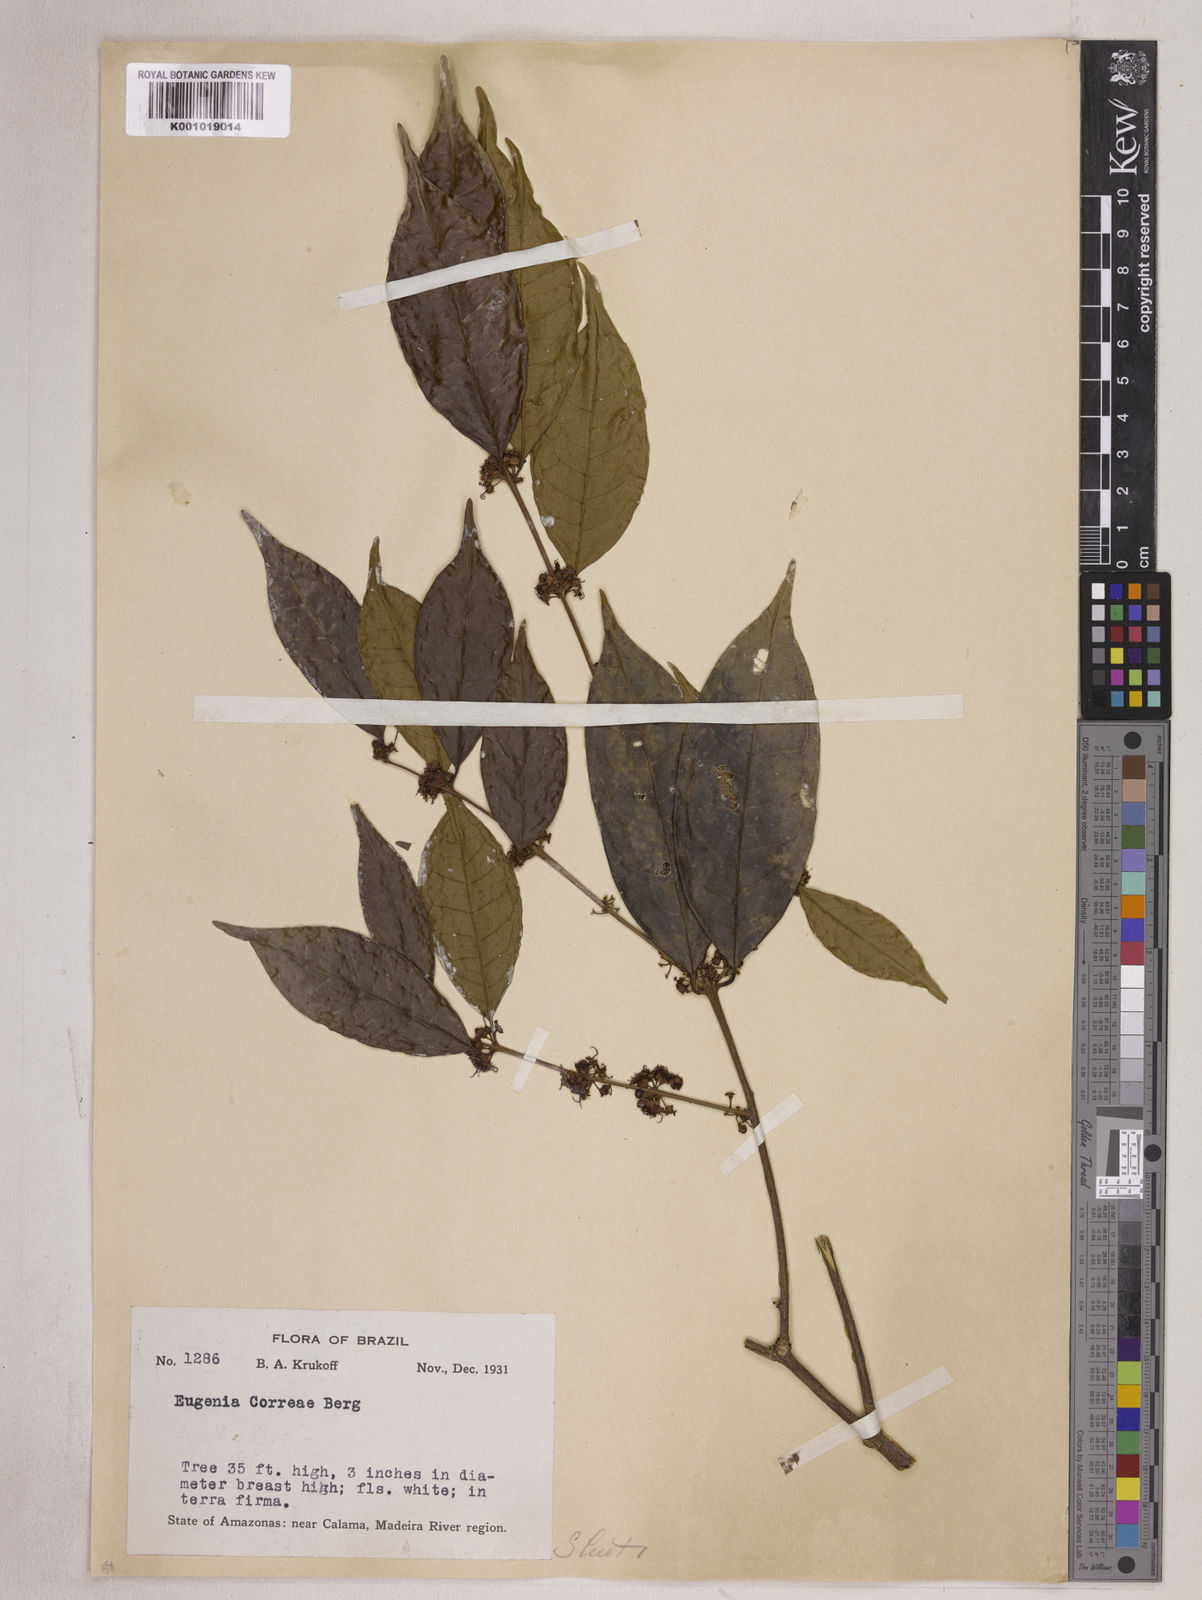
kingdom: Plantae
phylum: Tracheophyta
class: Magnoliopsida
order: Myrtales
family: Myrtaceae
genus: Eugenia
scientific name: Eugenia lambertiana
